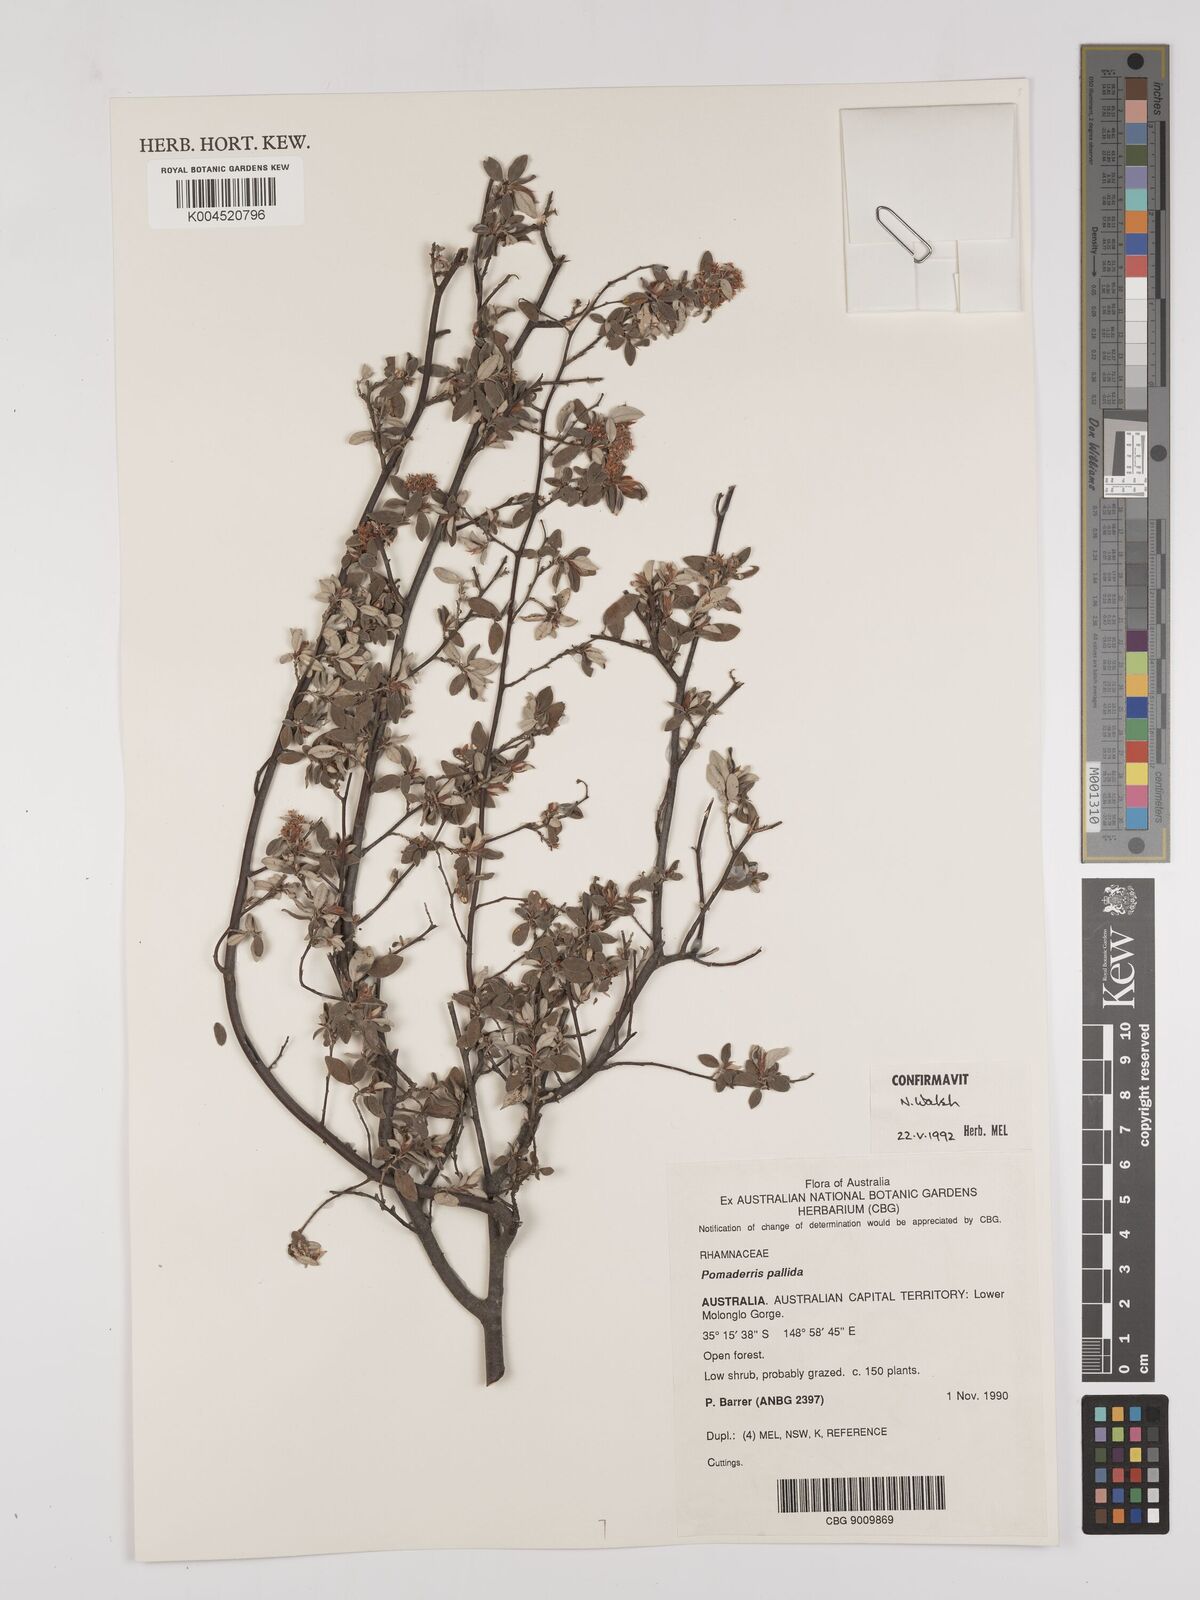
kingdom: Plantae
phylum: Tracheophyta
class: Magnoliopsida
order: Rosales
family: Rhamnaceae
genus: Pomaderris
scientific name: Pomaderris pallida
